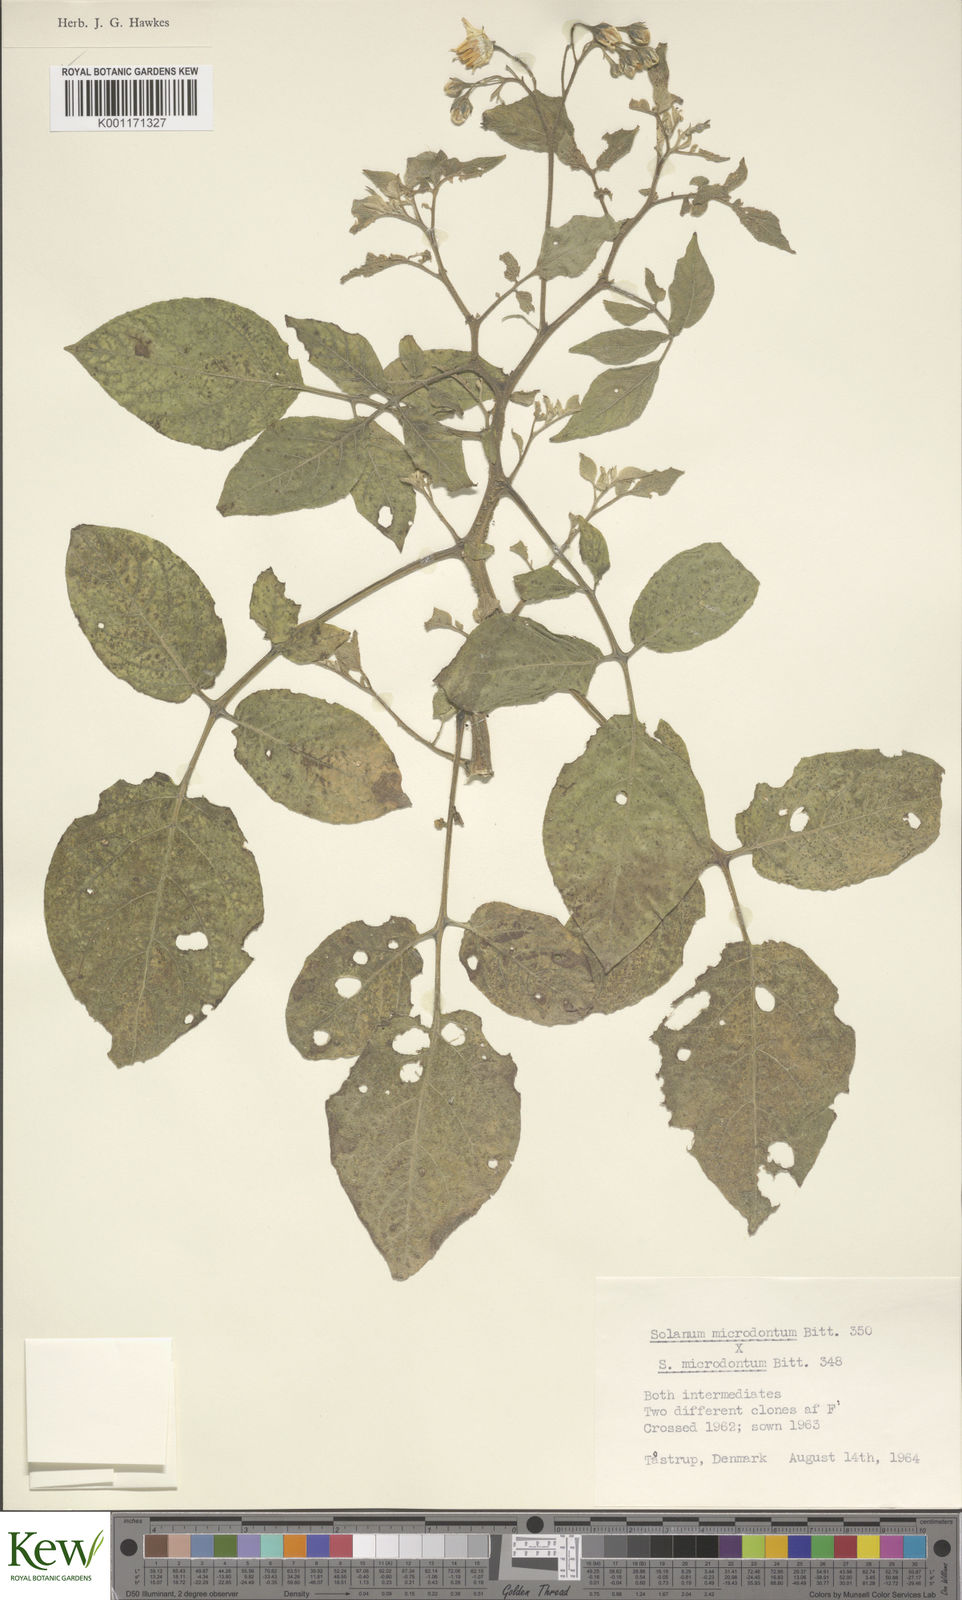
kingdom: Plantae
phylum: Tracheophyta
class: Magnoliopsida
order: Solanales
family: Solanaceae
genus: Solanum
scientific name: Solanum microdontum
